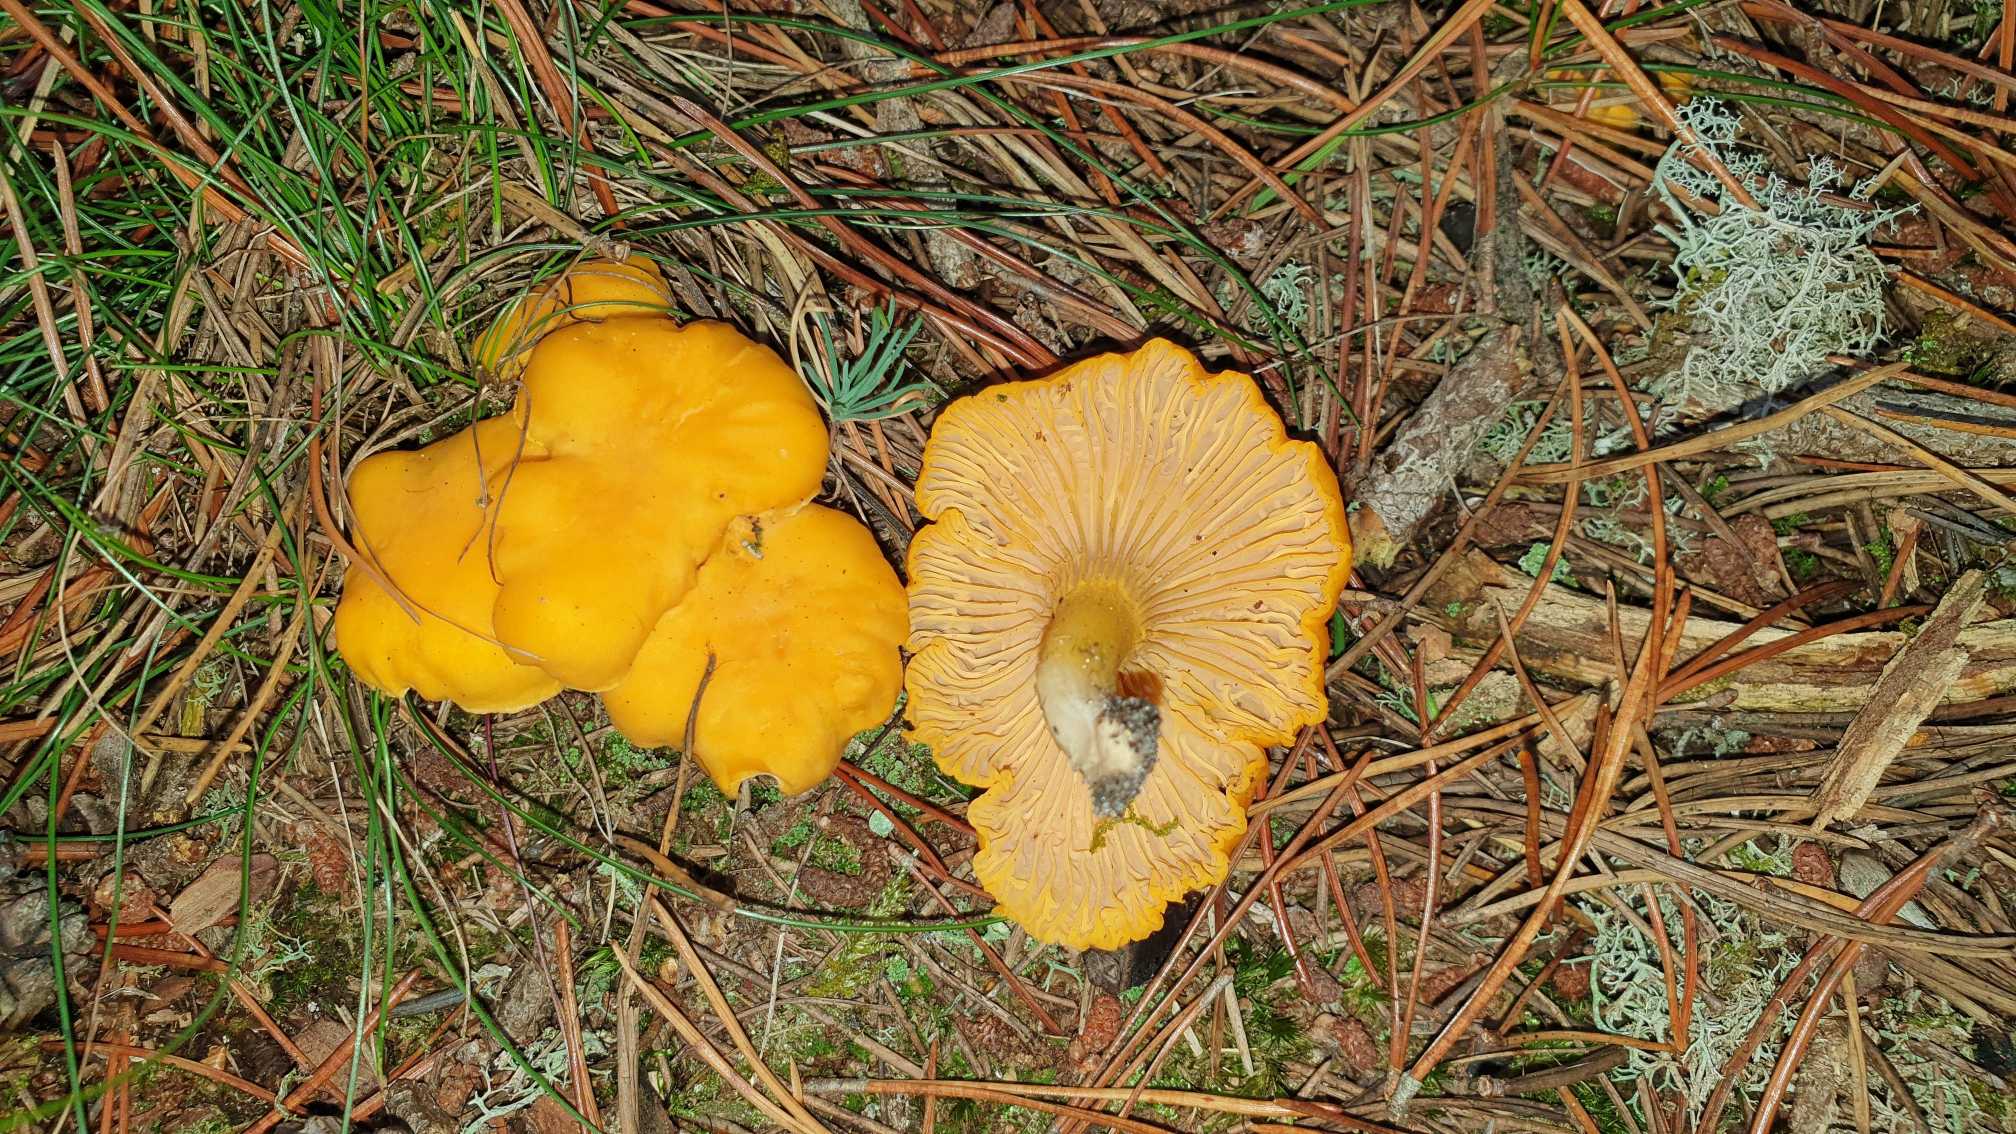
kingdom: Fungi
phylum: Basidiomycota
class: Agaricomycetes
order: Cantharellales
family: Hydnaceae
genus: Cantharellus
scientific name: Cantharellus cibarius
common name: Almindelig kantarel
